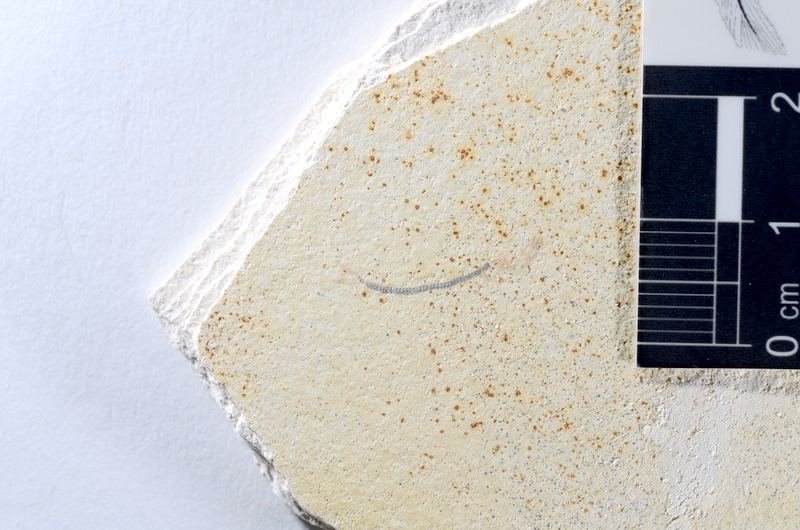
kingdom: Animalia
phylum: Chordata
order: Salmoniformes
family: Orthogonikleithridae
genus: Orthogonikleithrus
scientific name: Orthogonikleithrus hoelli
